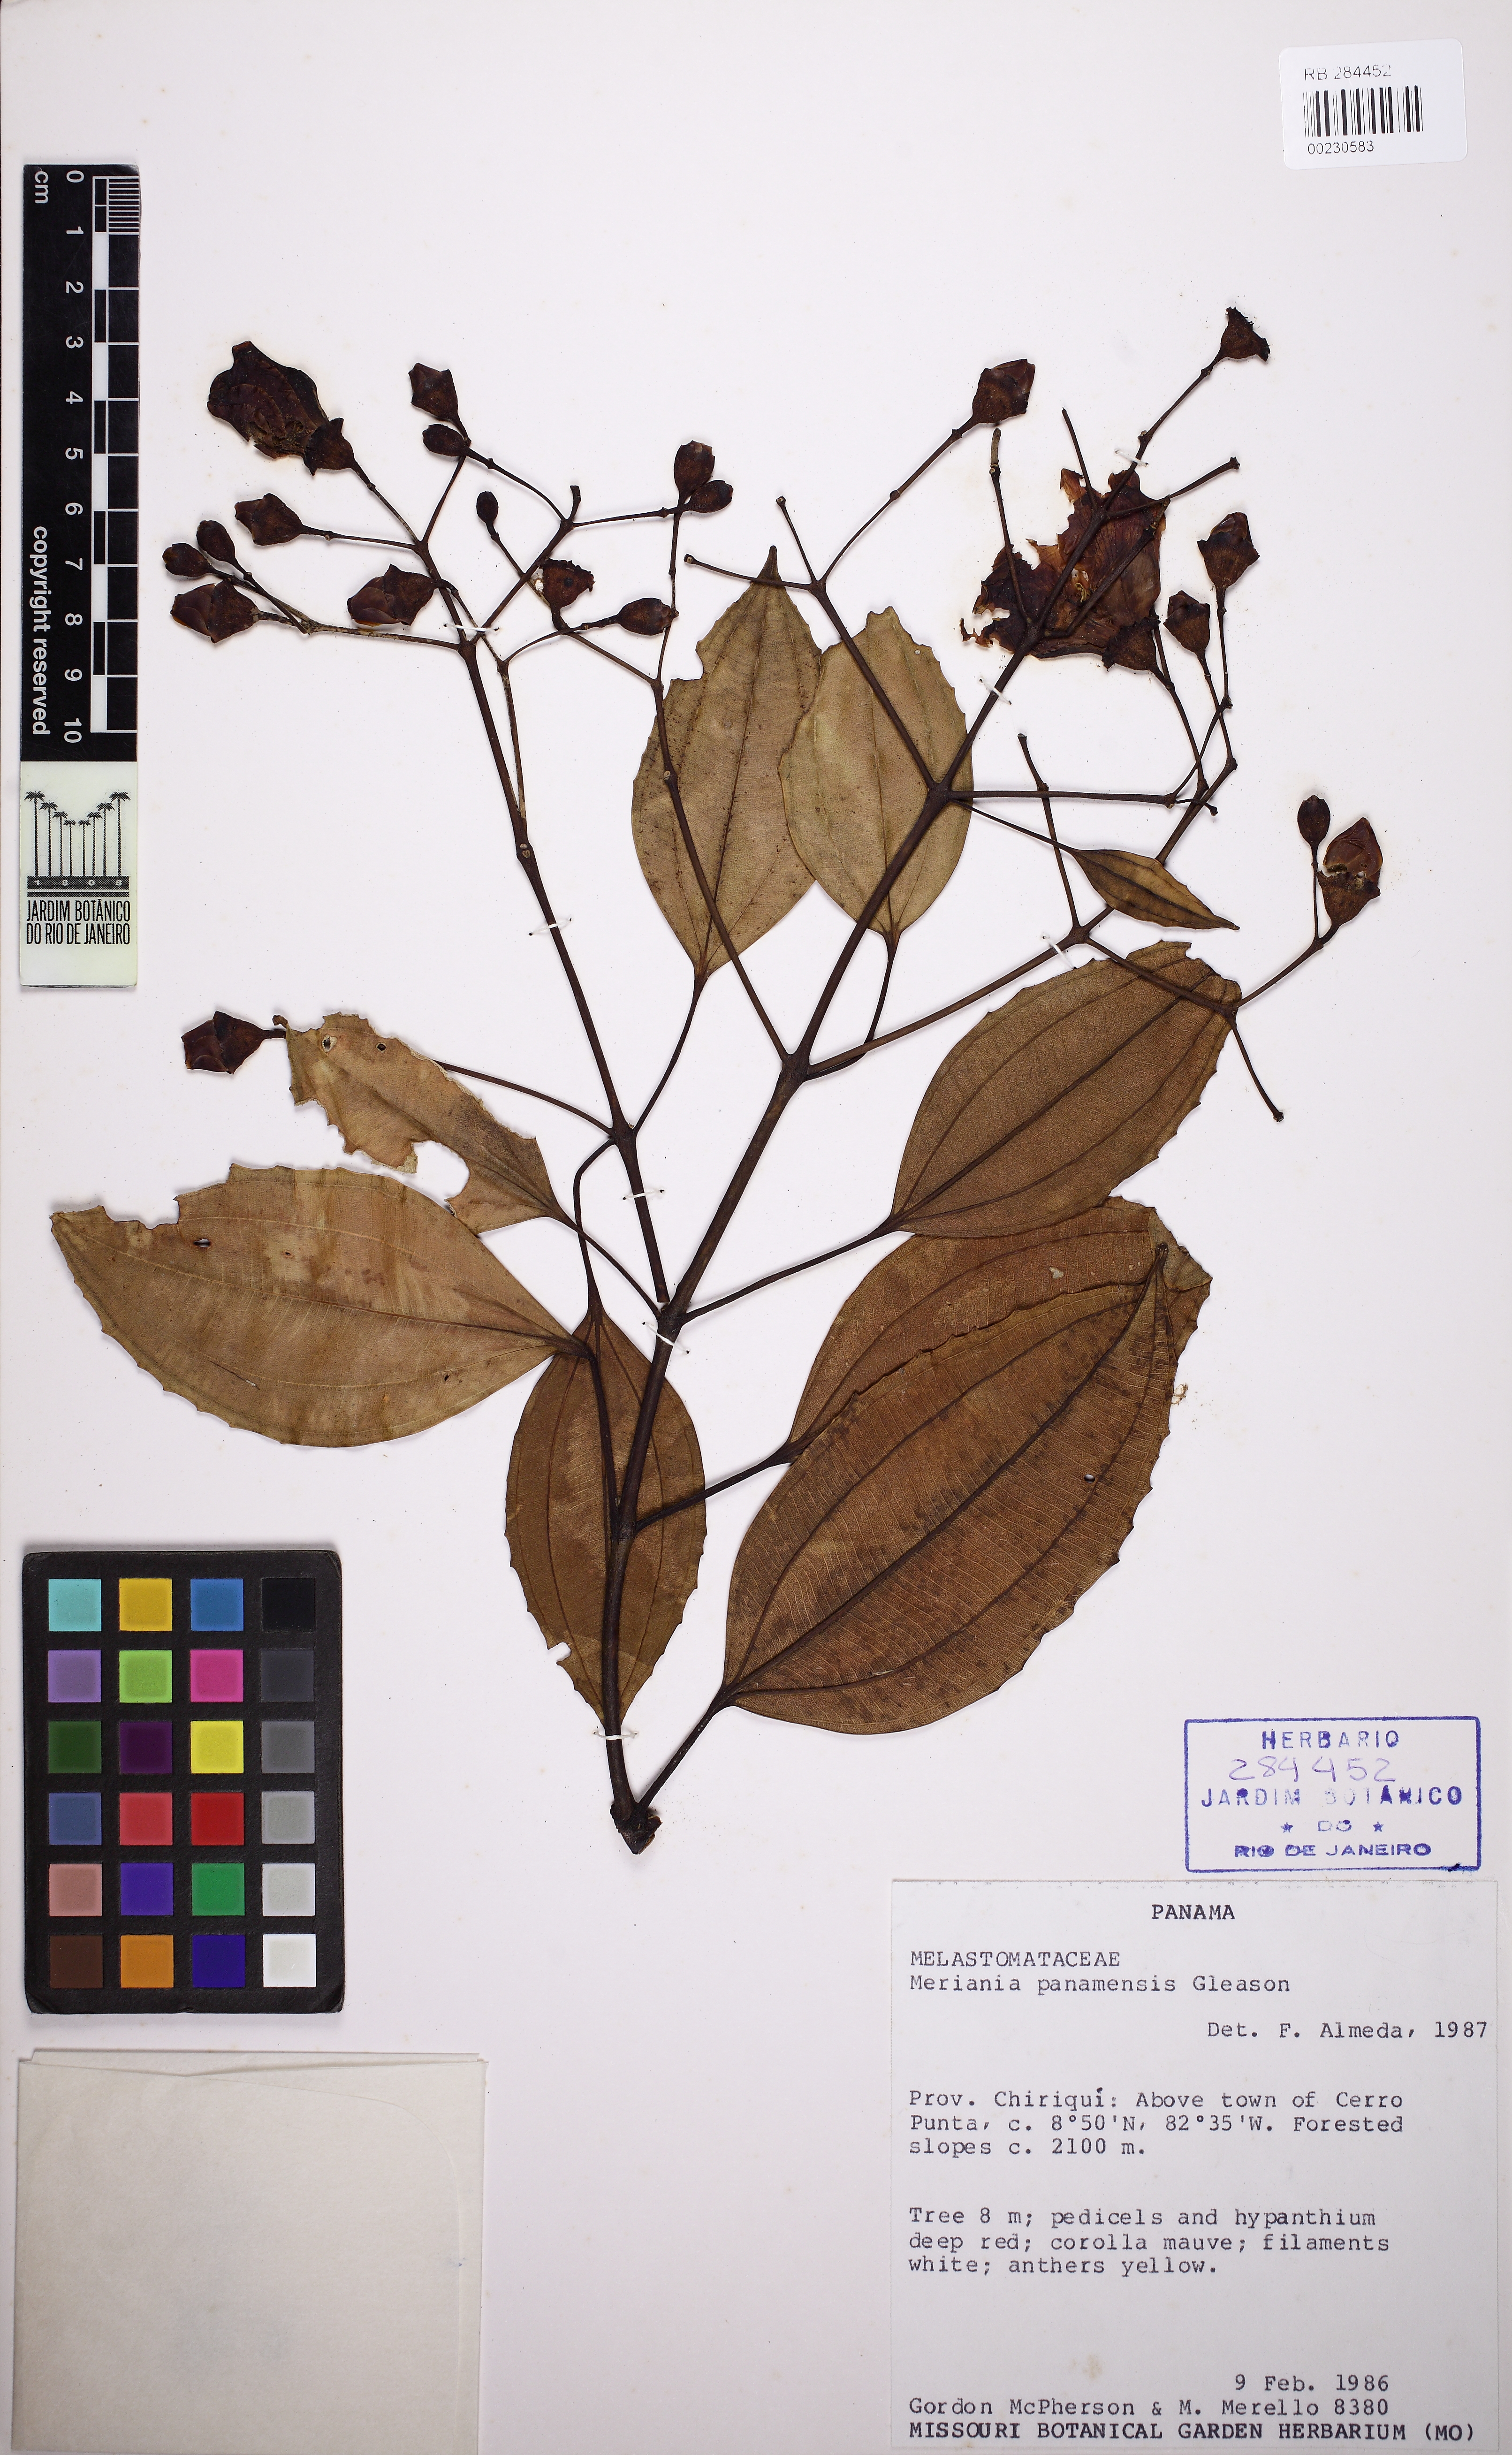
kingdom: Plantae
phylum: Tracheophyta
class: Magnoliopsida
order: Myrtales
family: Melastomataceae
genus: Meriania
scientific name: Meriania panamensis
